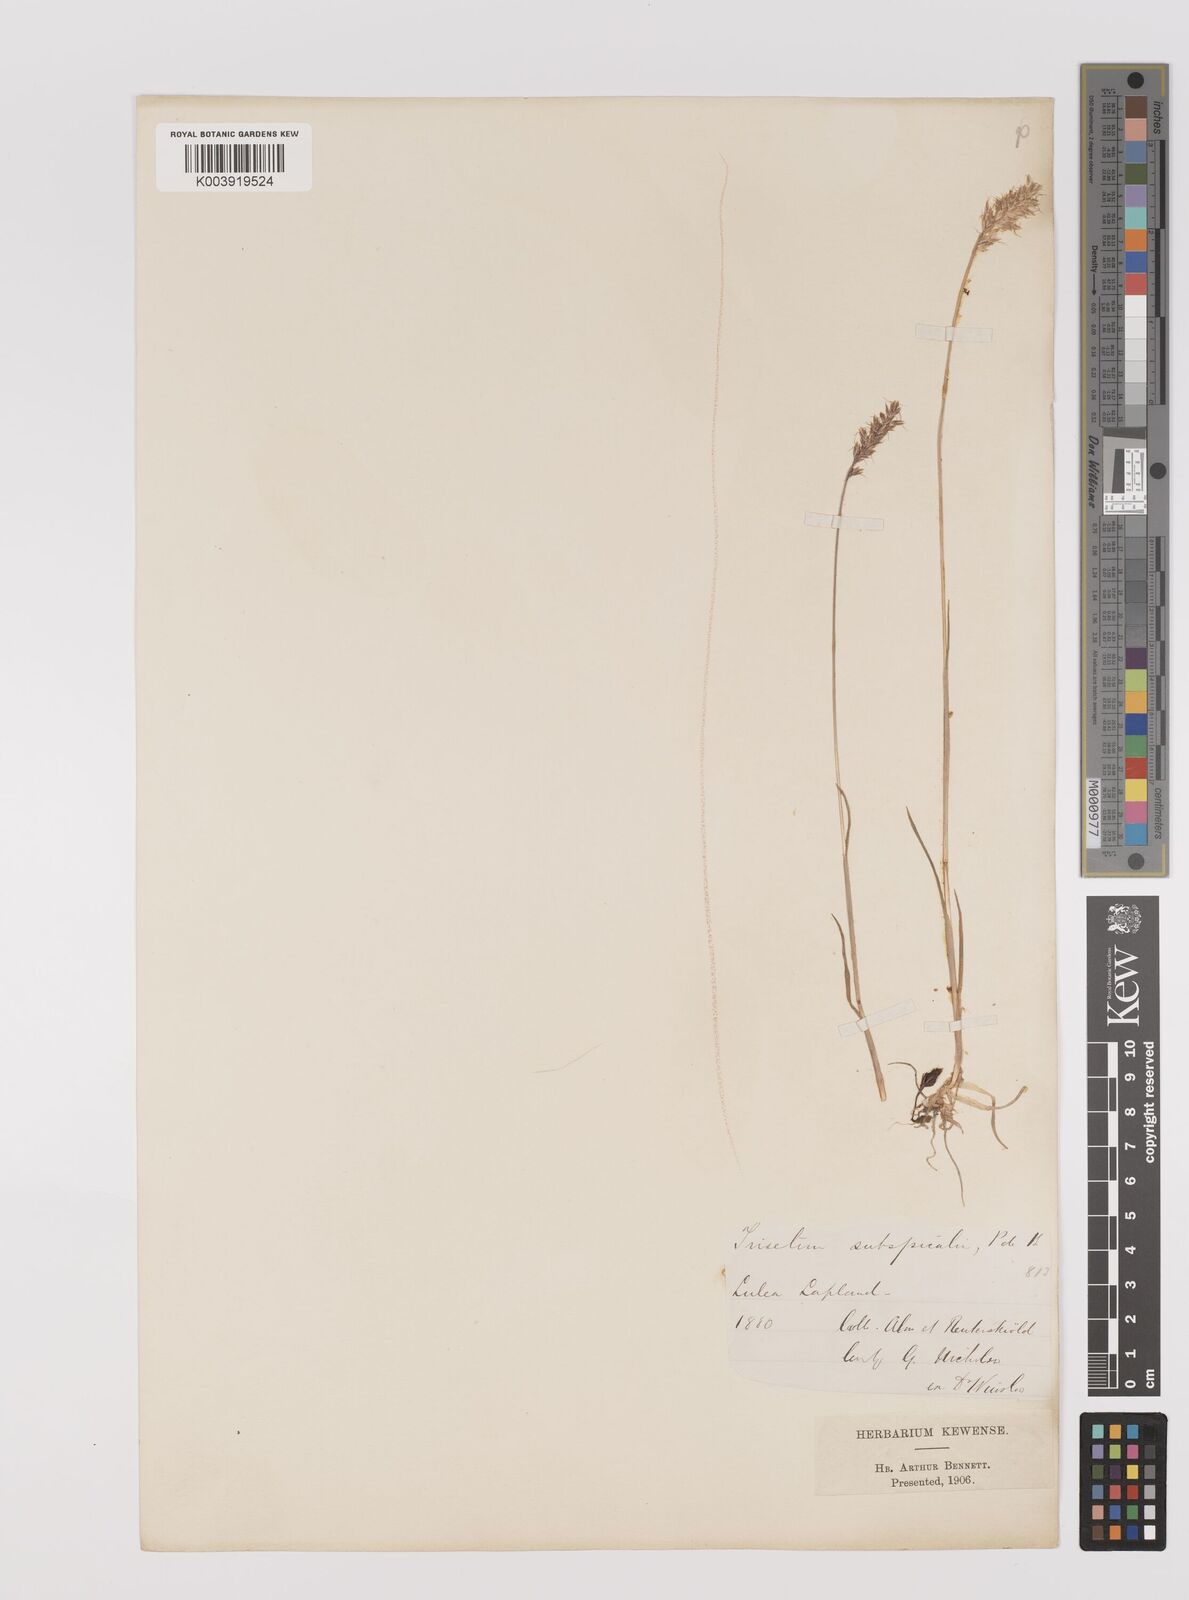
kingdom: Plantae
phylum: Tracheophyta
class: Liliopsida
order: Poales
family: Poaceae
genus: Koeleria
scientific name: Koeleria spicata
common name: Mountain trisetum
